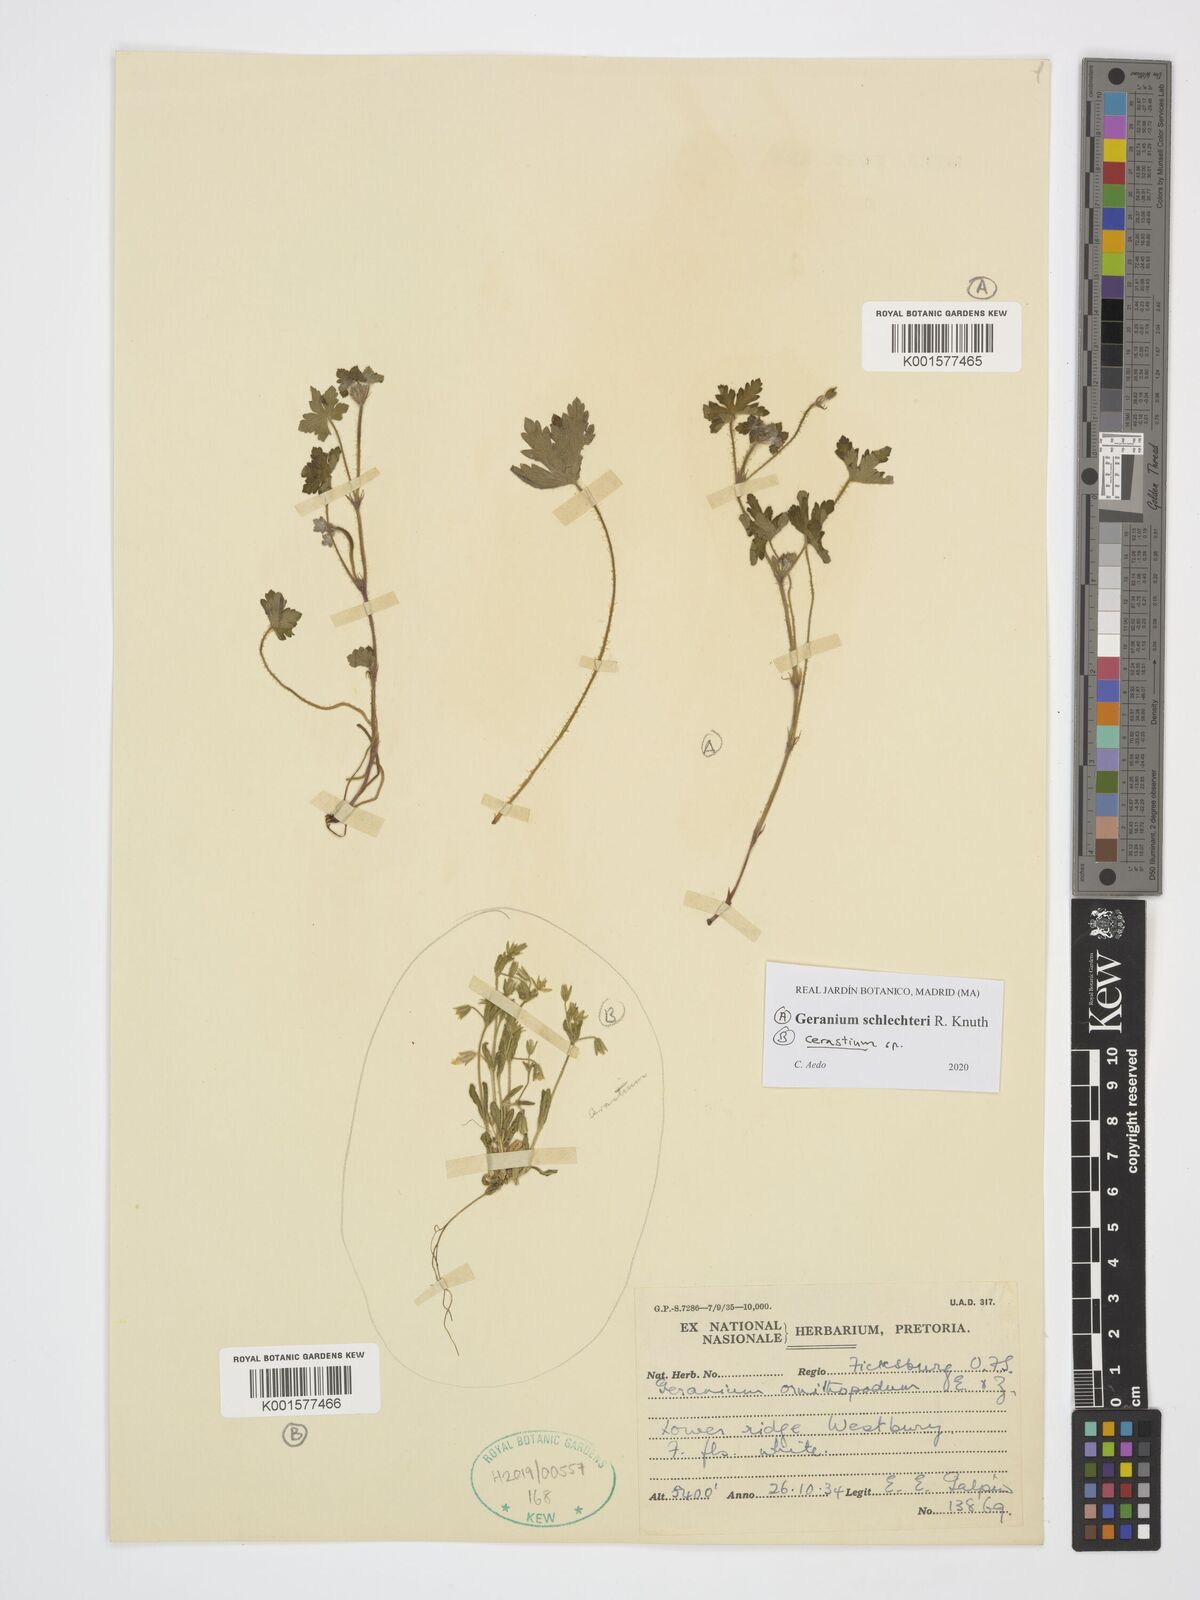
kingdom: Plantae
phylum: Tracheophyta
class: Magnoliopsida
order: Caryophyllales
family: Caryophyllaceae
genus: Cerastium
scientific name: Cerastium
